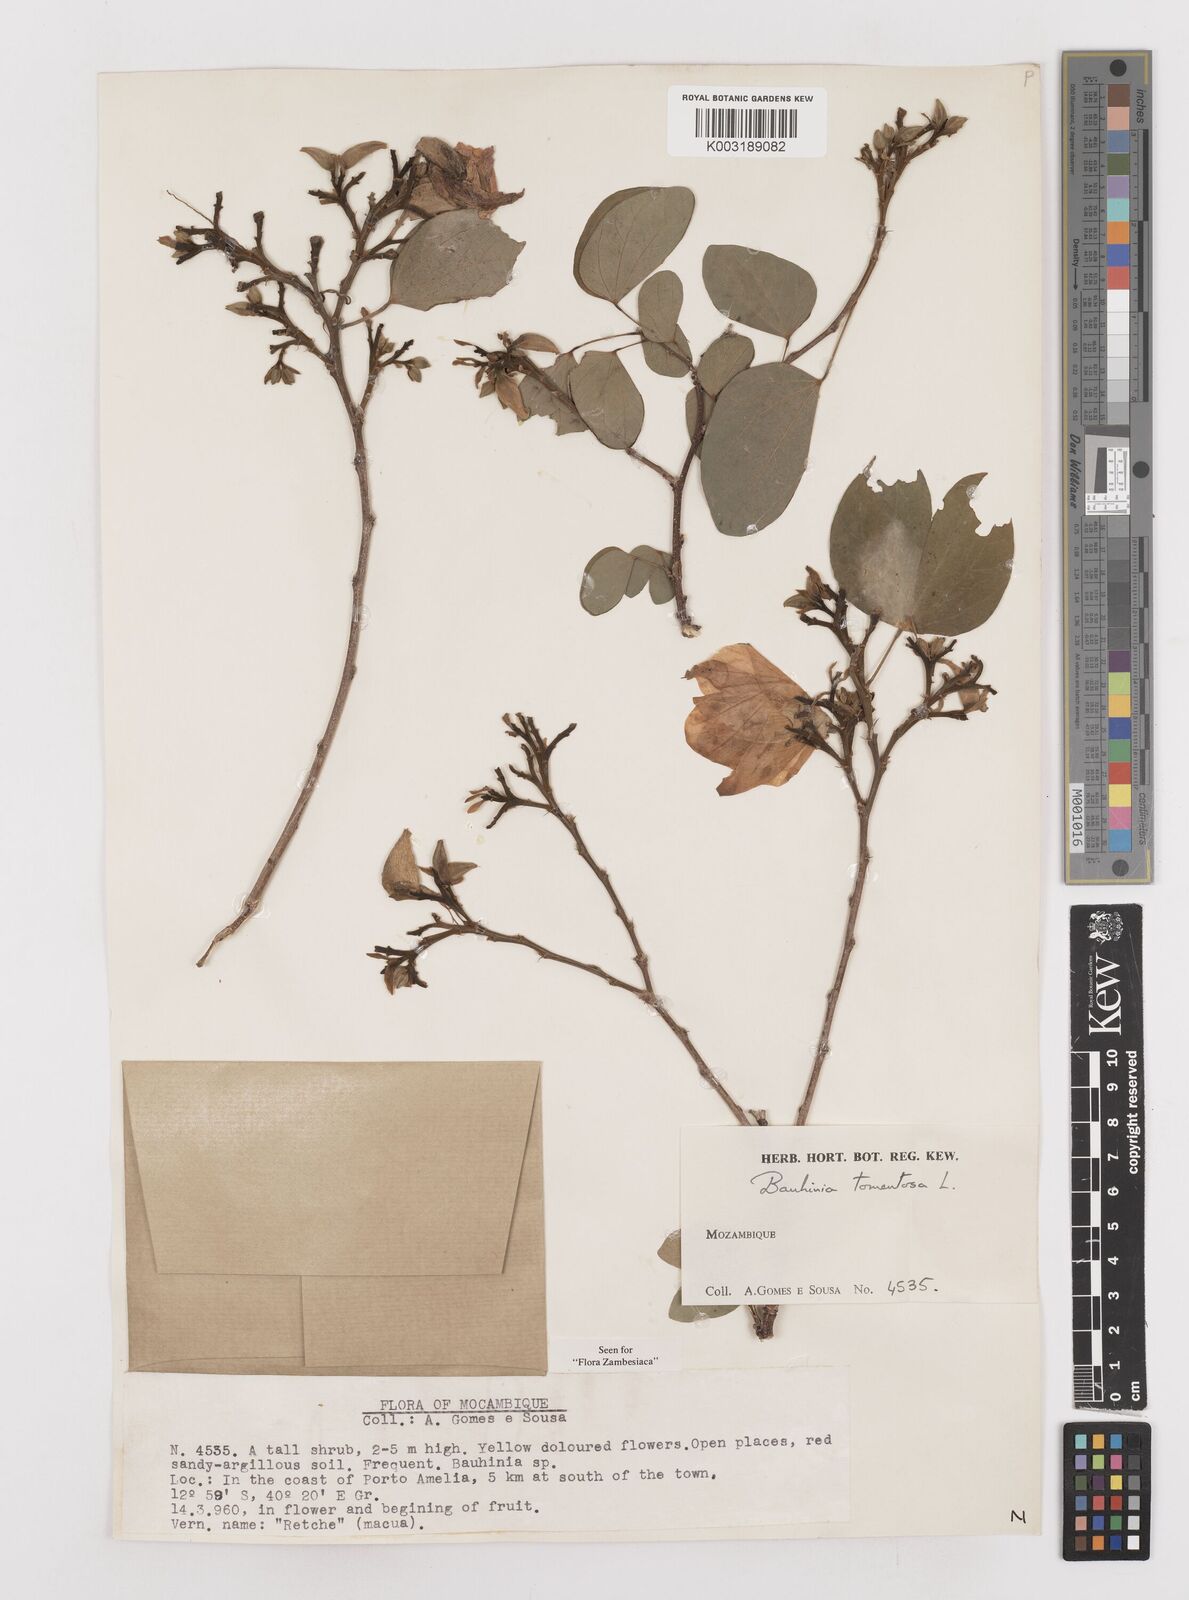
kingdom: Plantae
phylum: Tracheophyta
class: Magnoliopsida
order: Fabales
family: Fabaceae
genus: Bauhinia
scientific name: Bauhinia tomentosa
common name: Bell bauhinia
